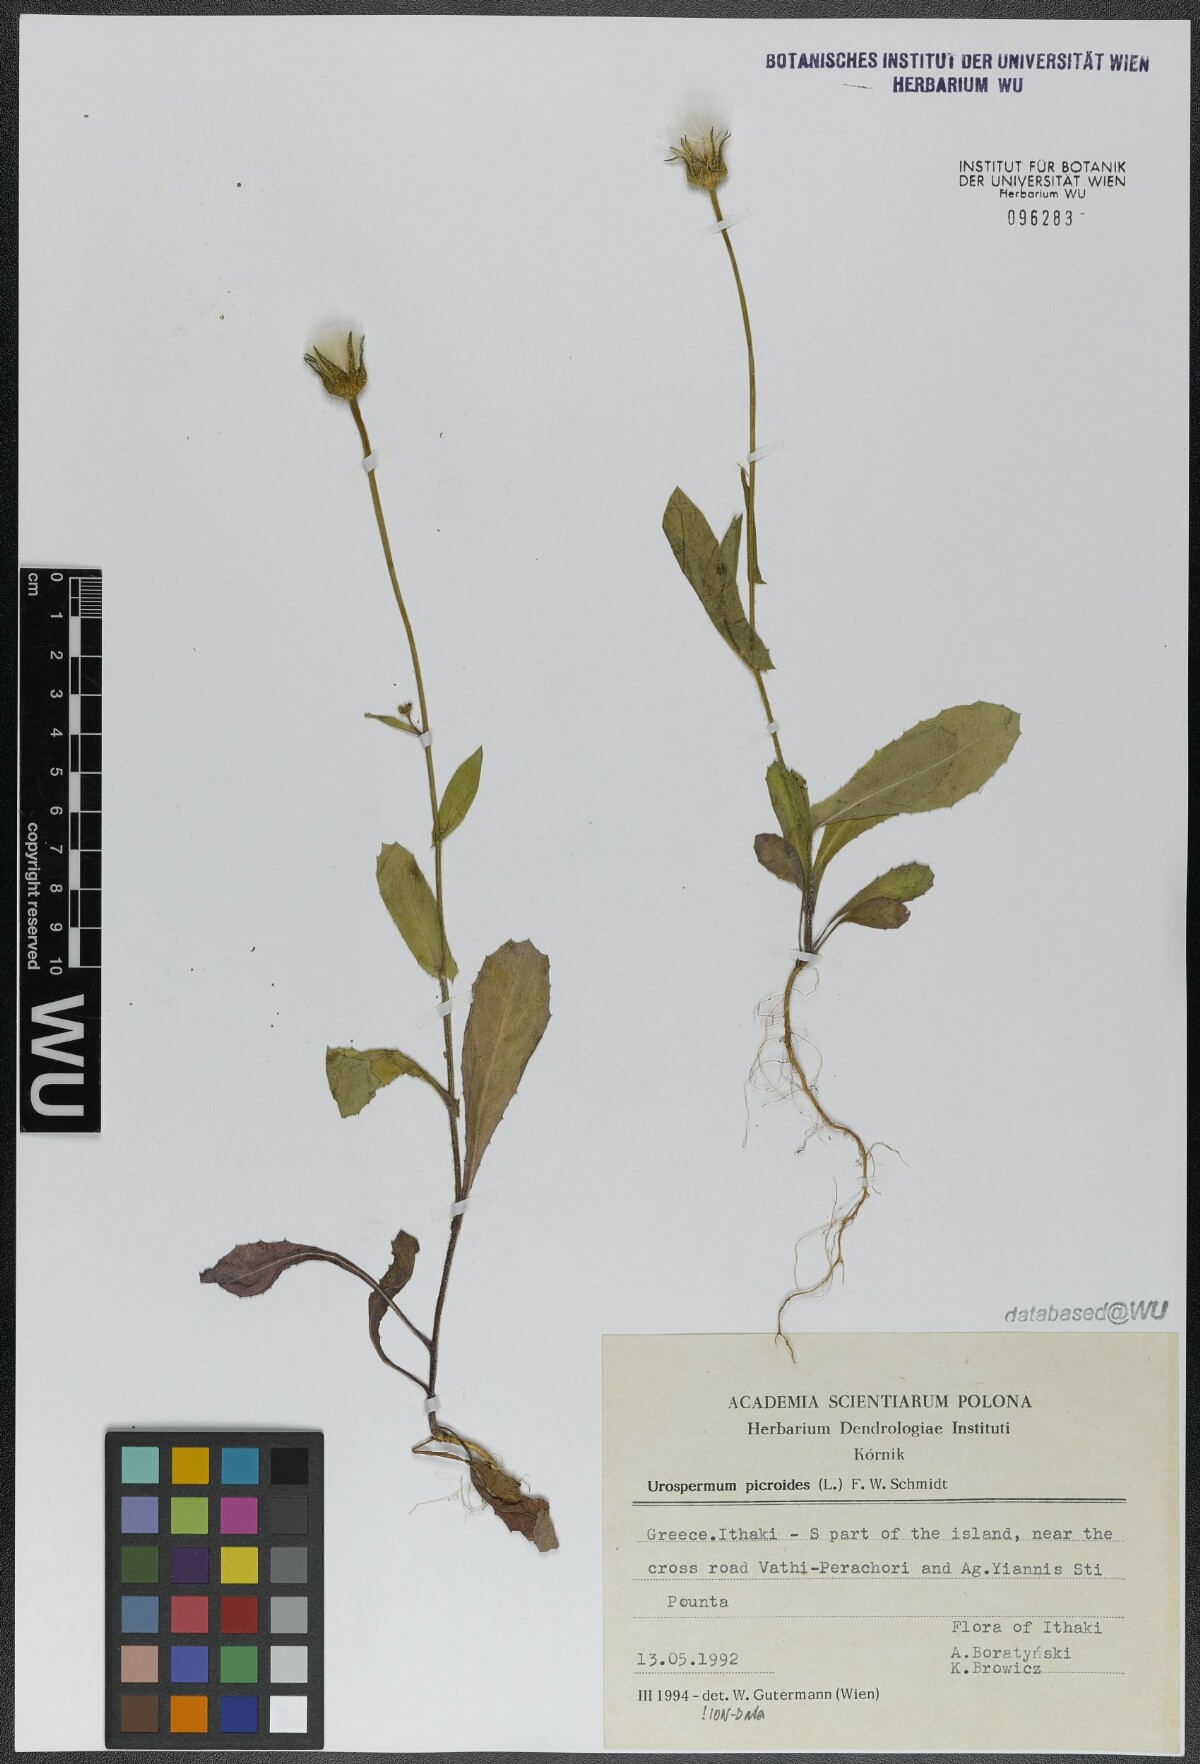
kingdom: Plantae
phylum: Tracheophyta
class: Magnoliopsida
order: Asterales
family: Asteraceae
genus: Urospermum
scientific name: Urospermum picroides
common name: False hawkbit
